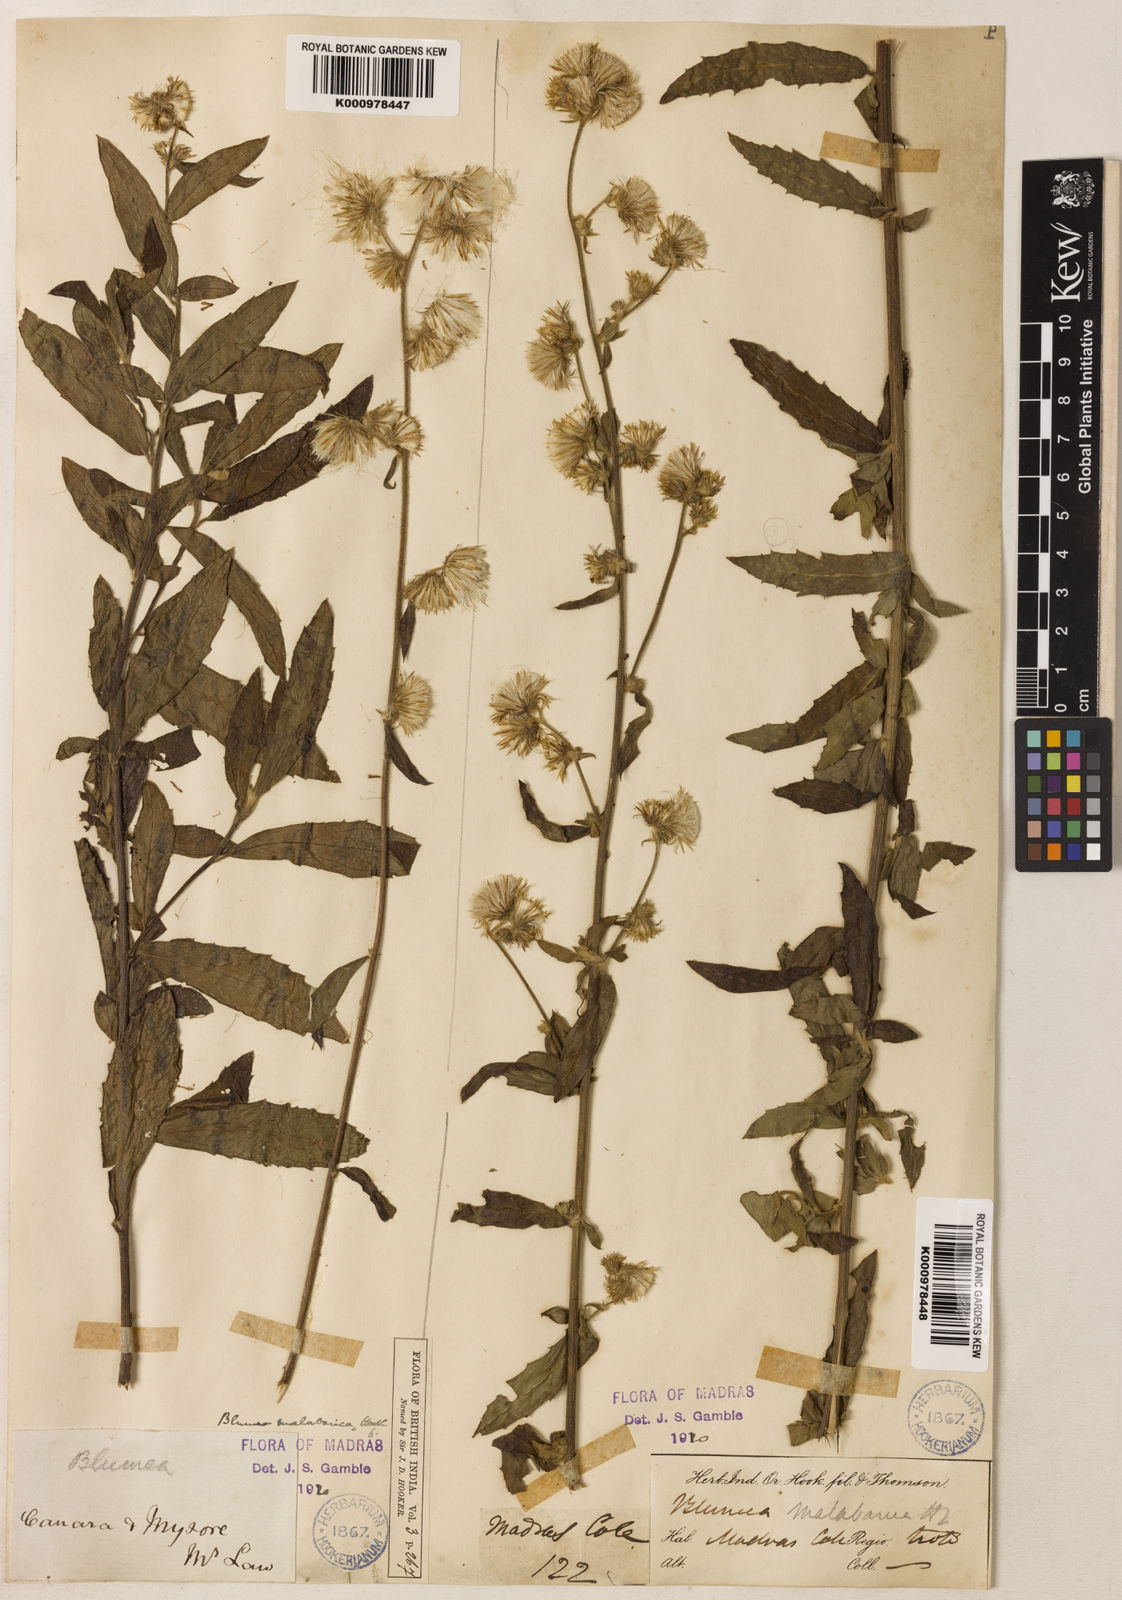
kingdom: Plantae
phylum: Tracheophyta
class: Magnoliopsida
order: Asterales
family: Asteraceae
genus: Blumea
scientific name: Blumea hirsuta
